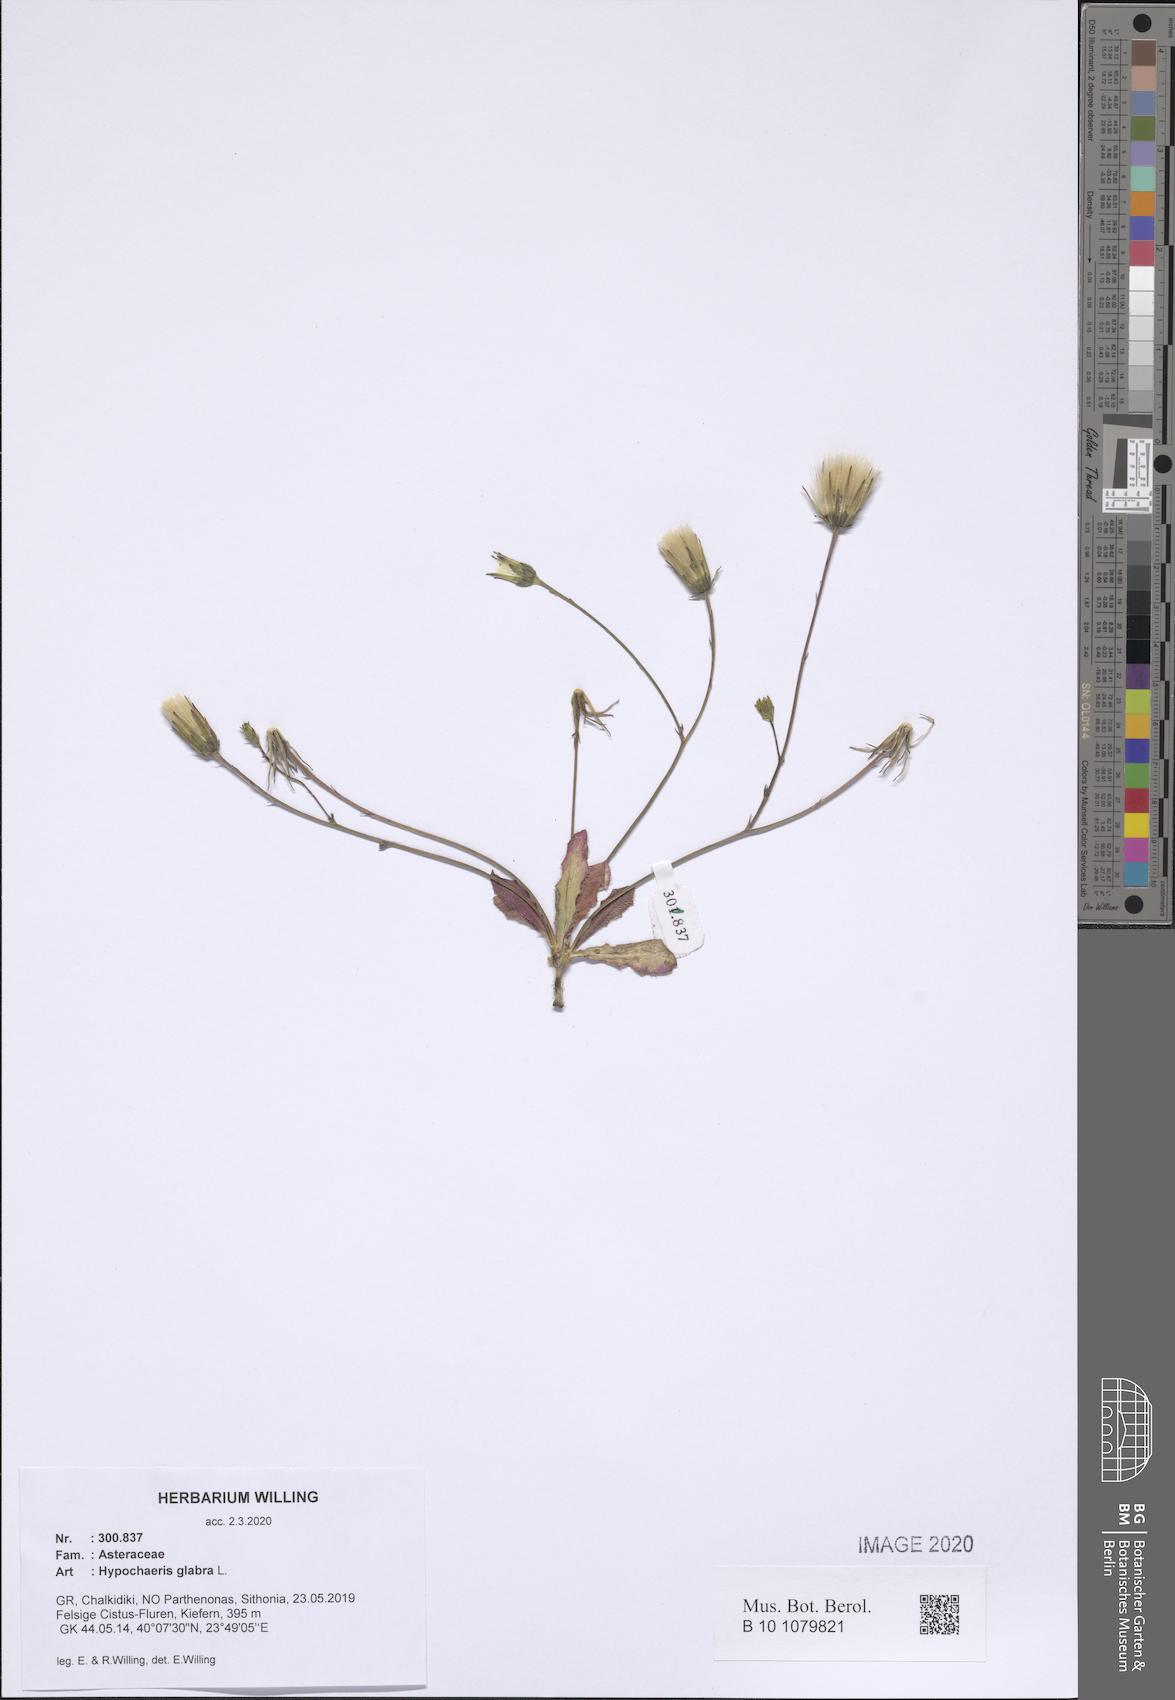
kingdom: Plantae
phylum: Tracheophyta
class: Magnoliopsida
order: Asterales
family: Asteraceae
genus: Hypochaeris
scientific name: Hypochaeris glabra
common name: Smooth catsear
